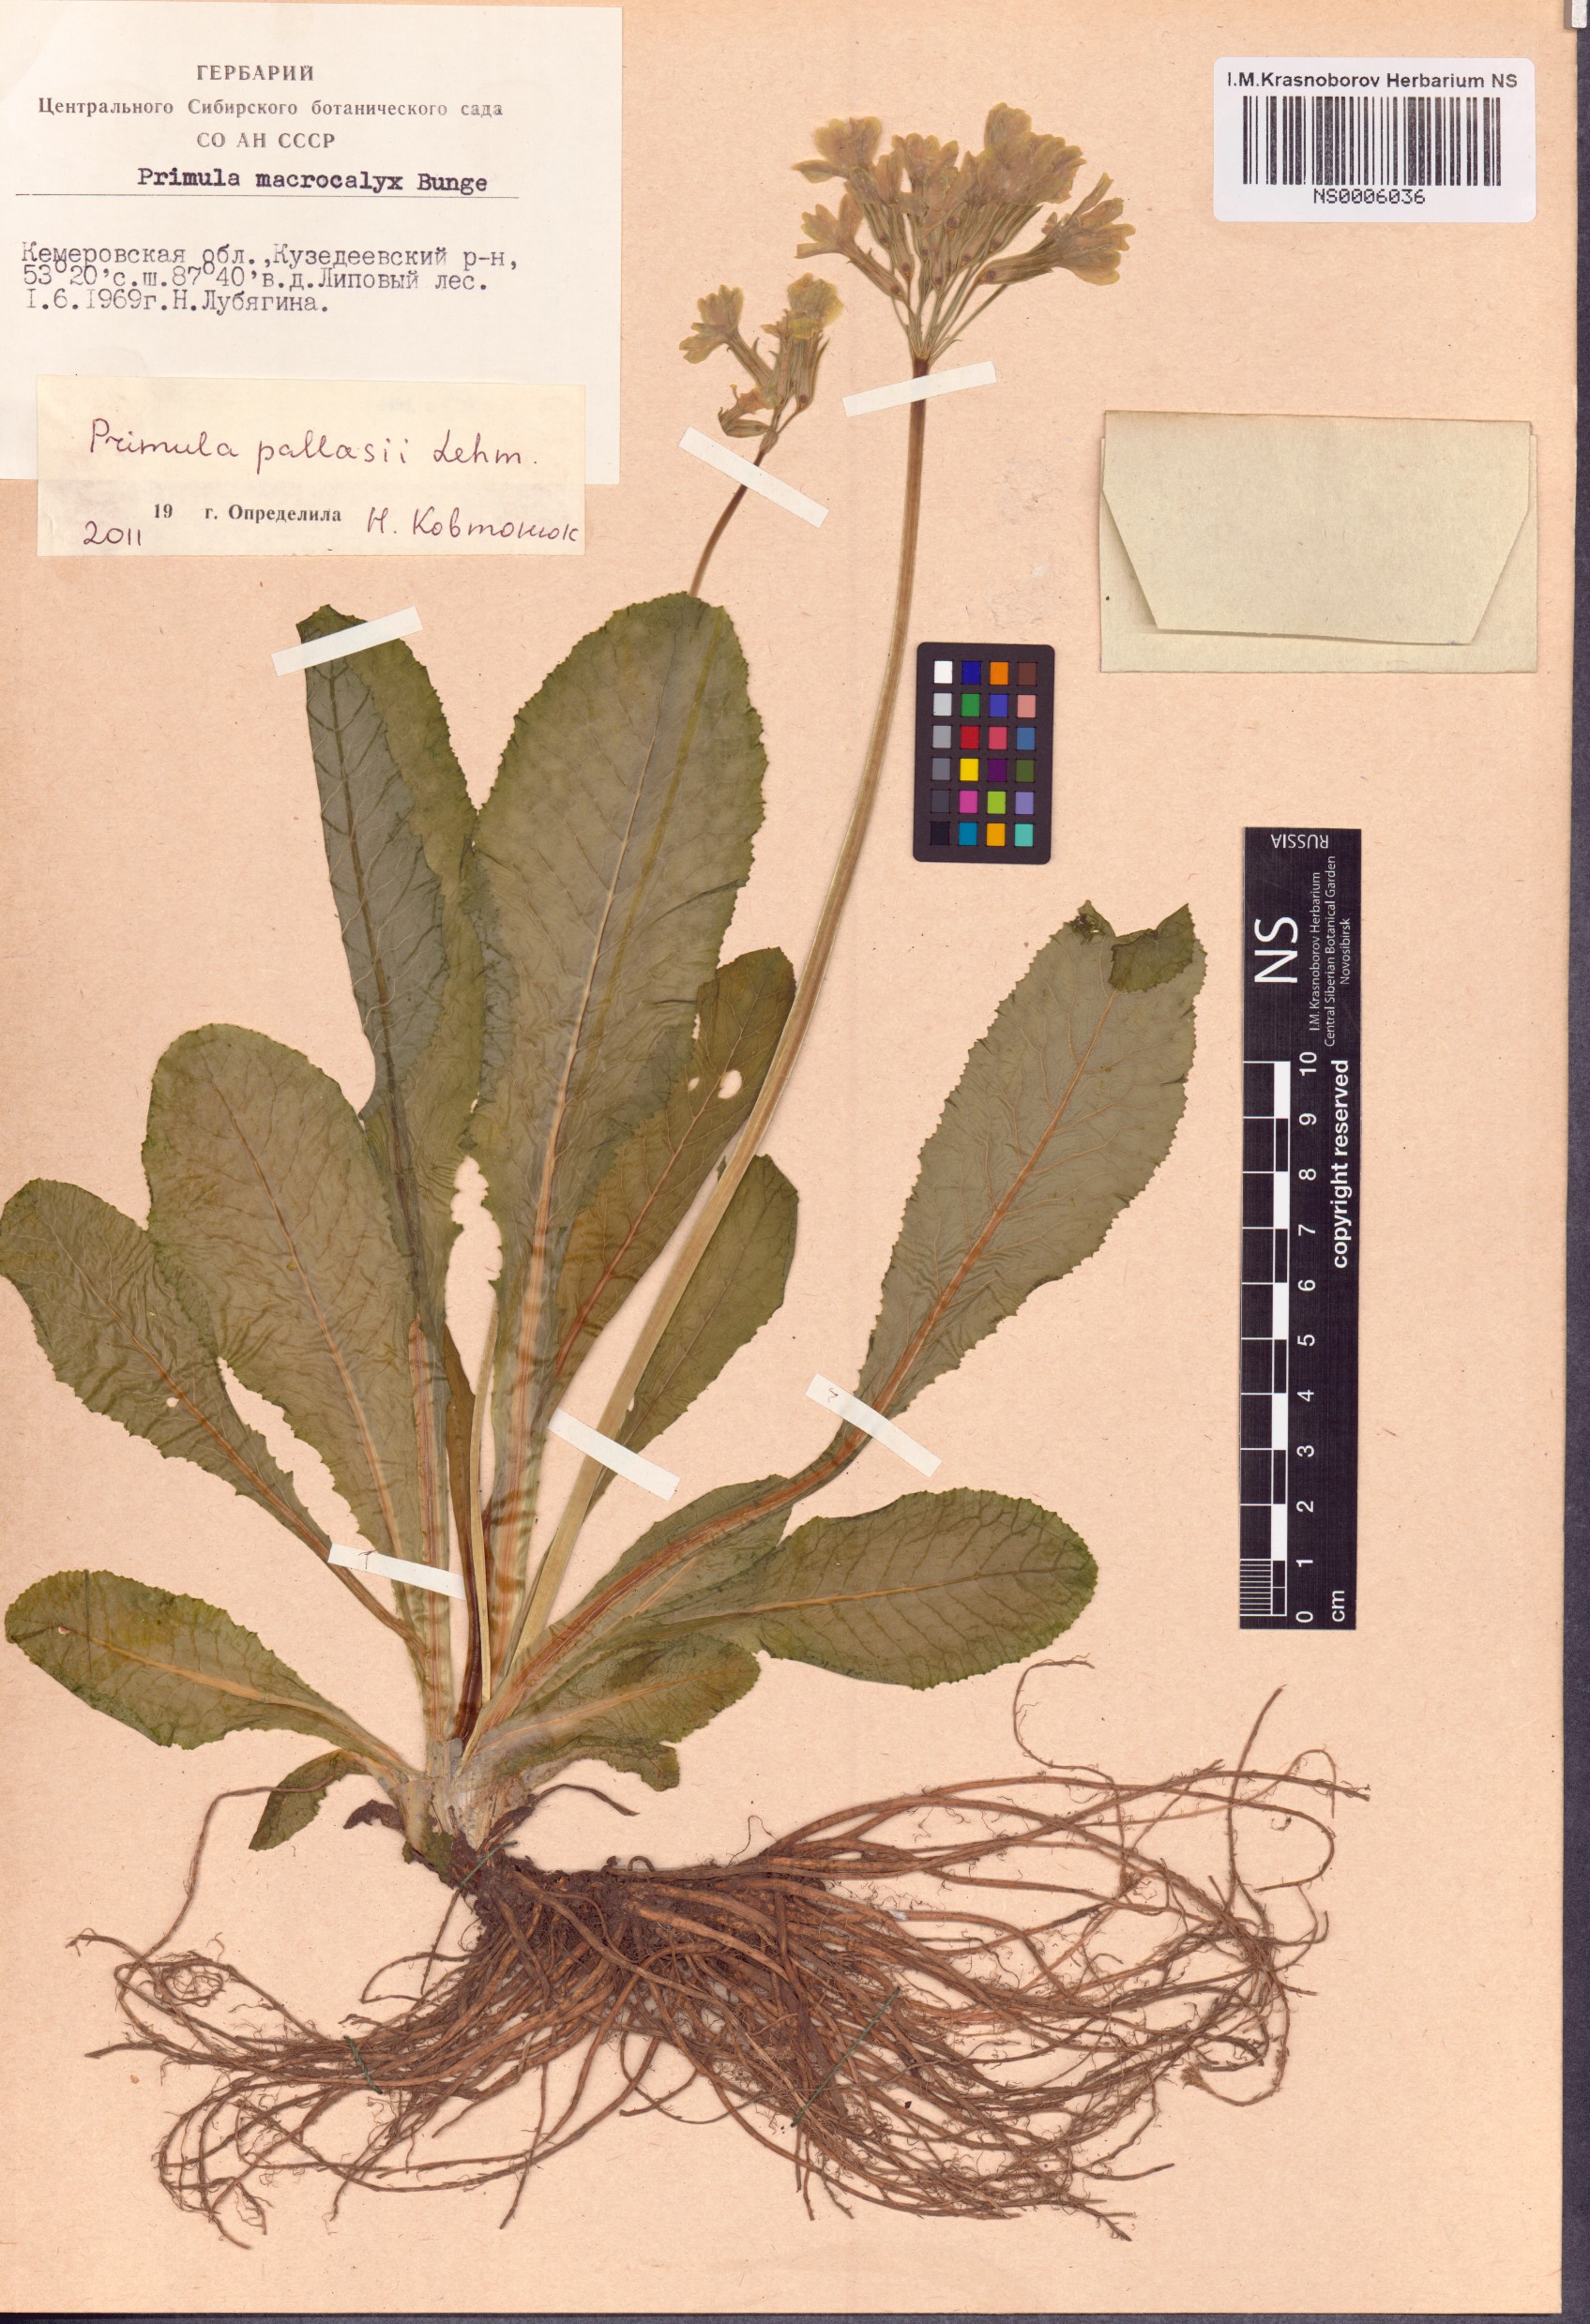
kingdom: Plantae
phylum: Tracheophyta
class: Magnoliopsida
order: Ericales
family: Primulaceae
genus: Primula
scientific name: Primula elatior
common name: Oxlip
